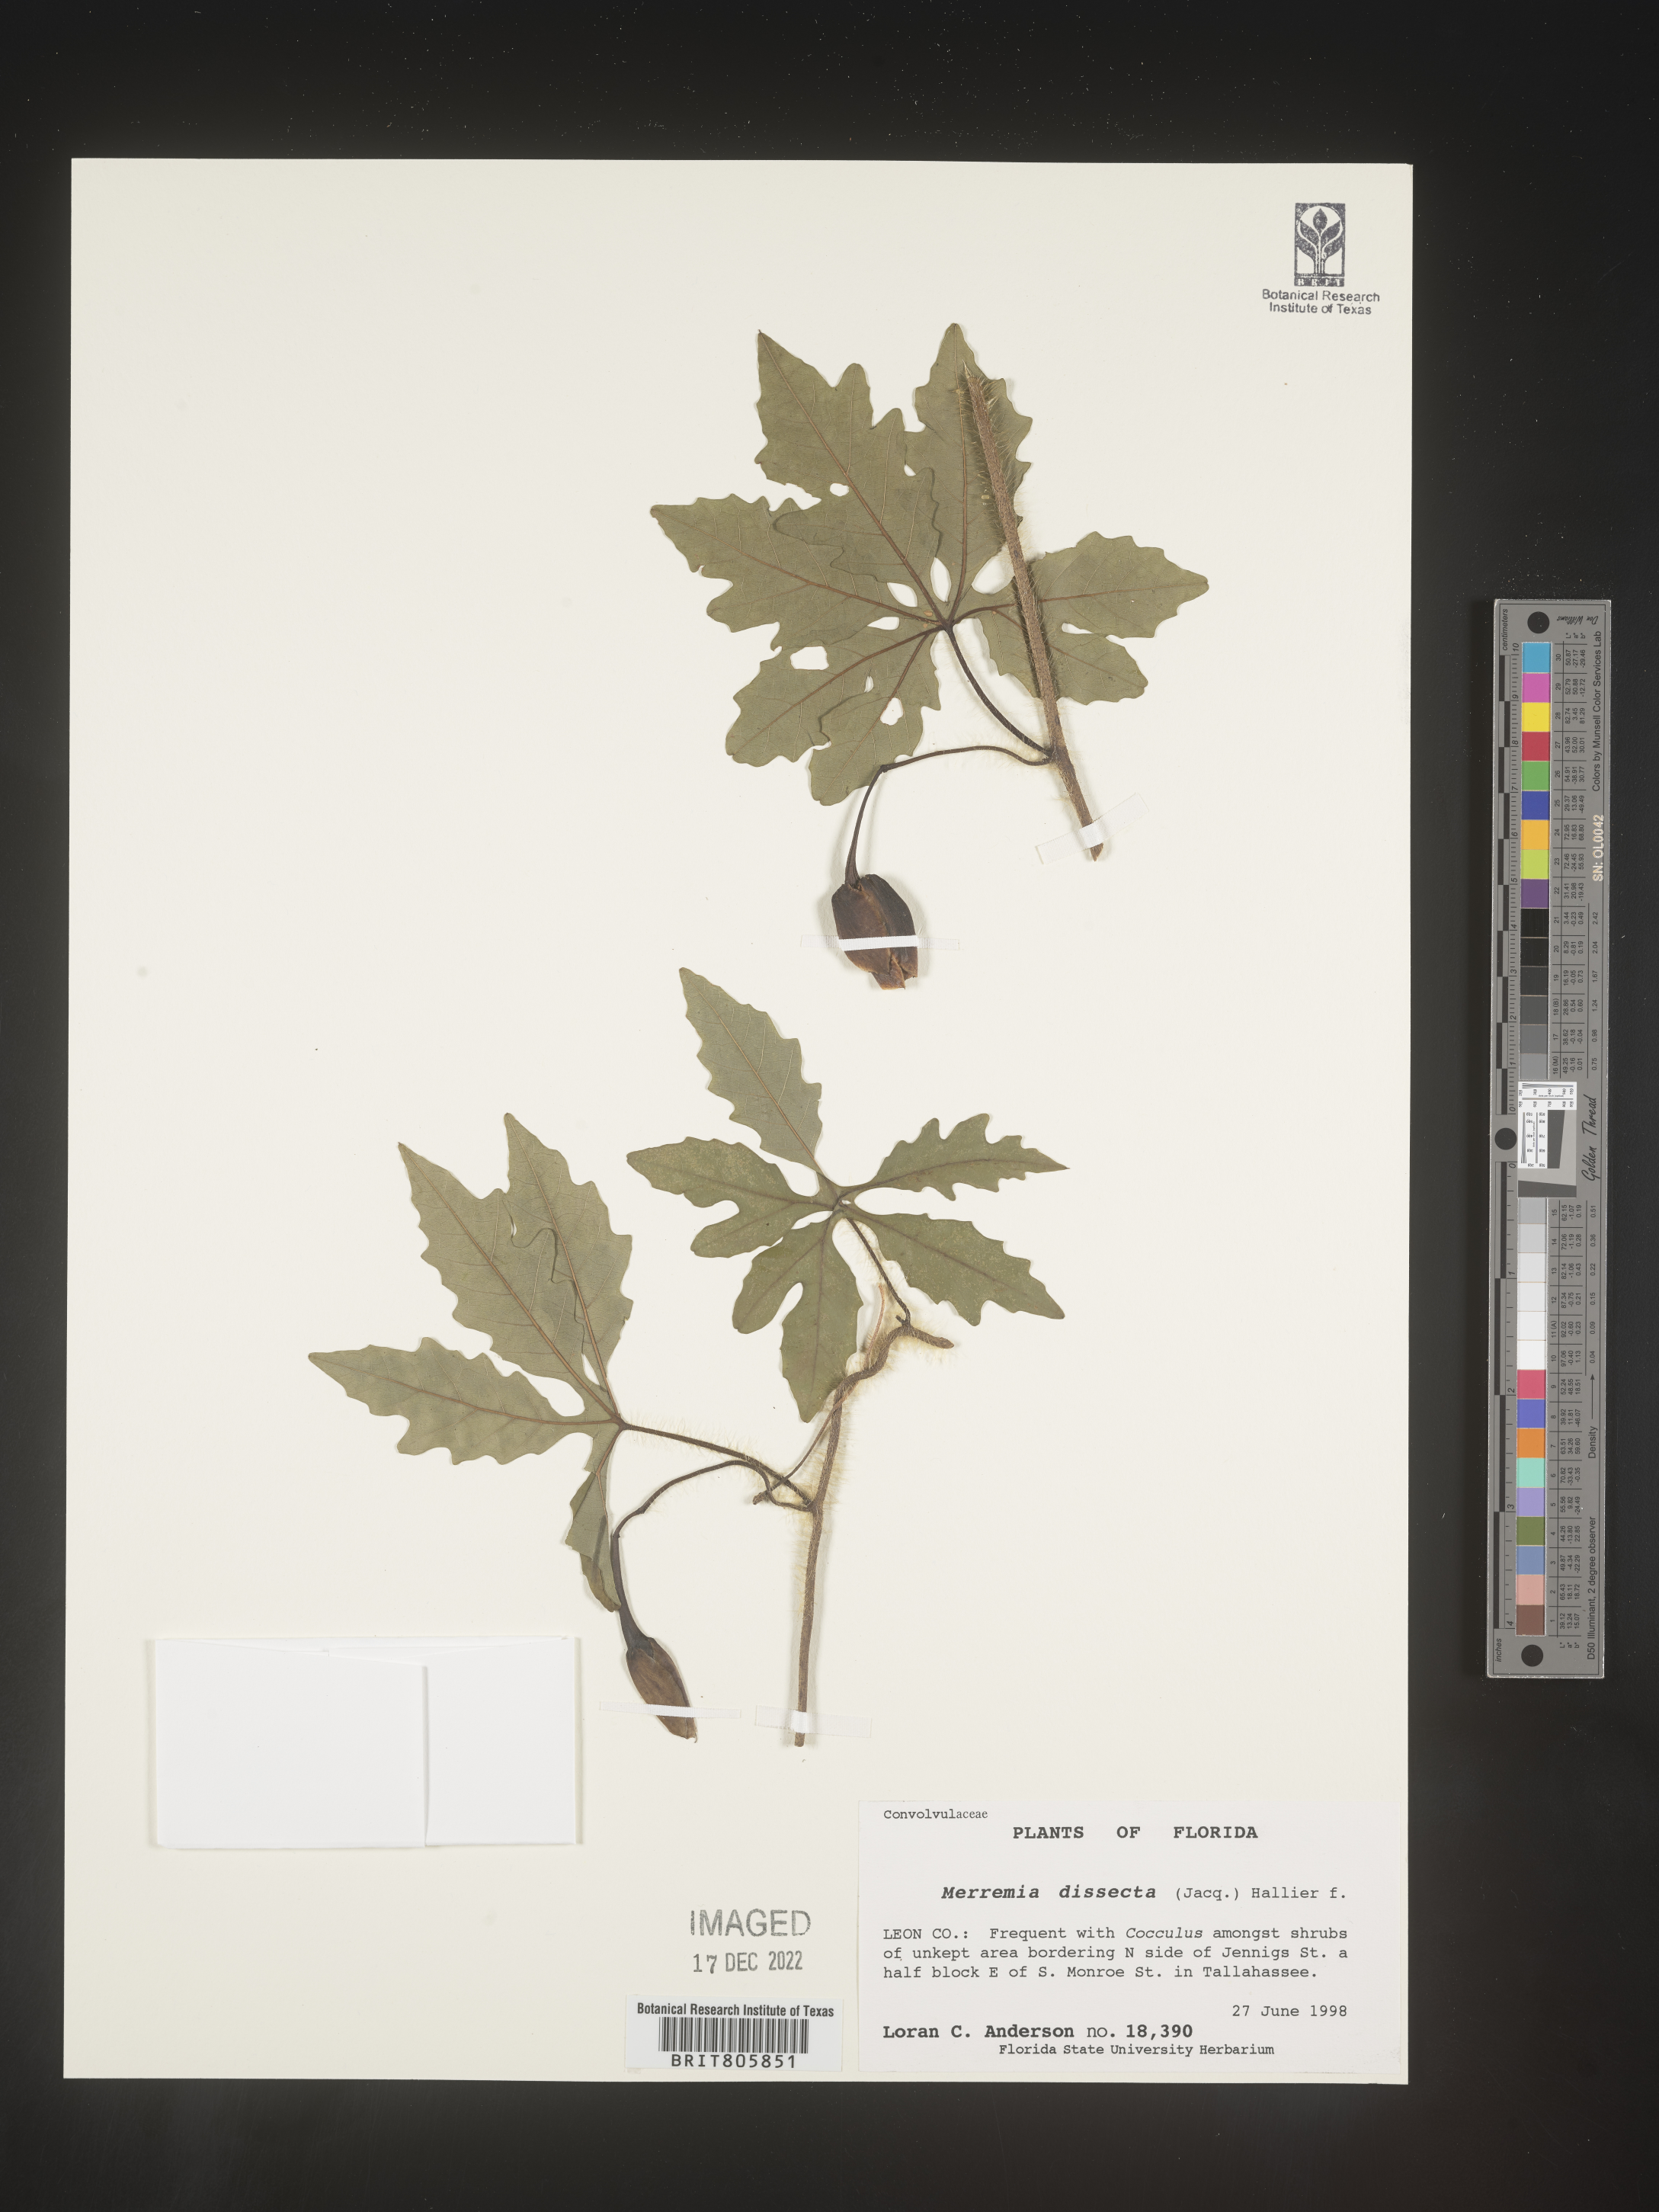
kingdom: Plantae
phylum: Tracheophyta
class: Magnoliopsida
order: Solanales
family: Convolvulaceae
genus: Merremia
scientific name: Merremia
